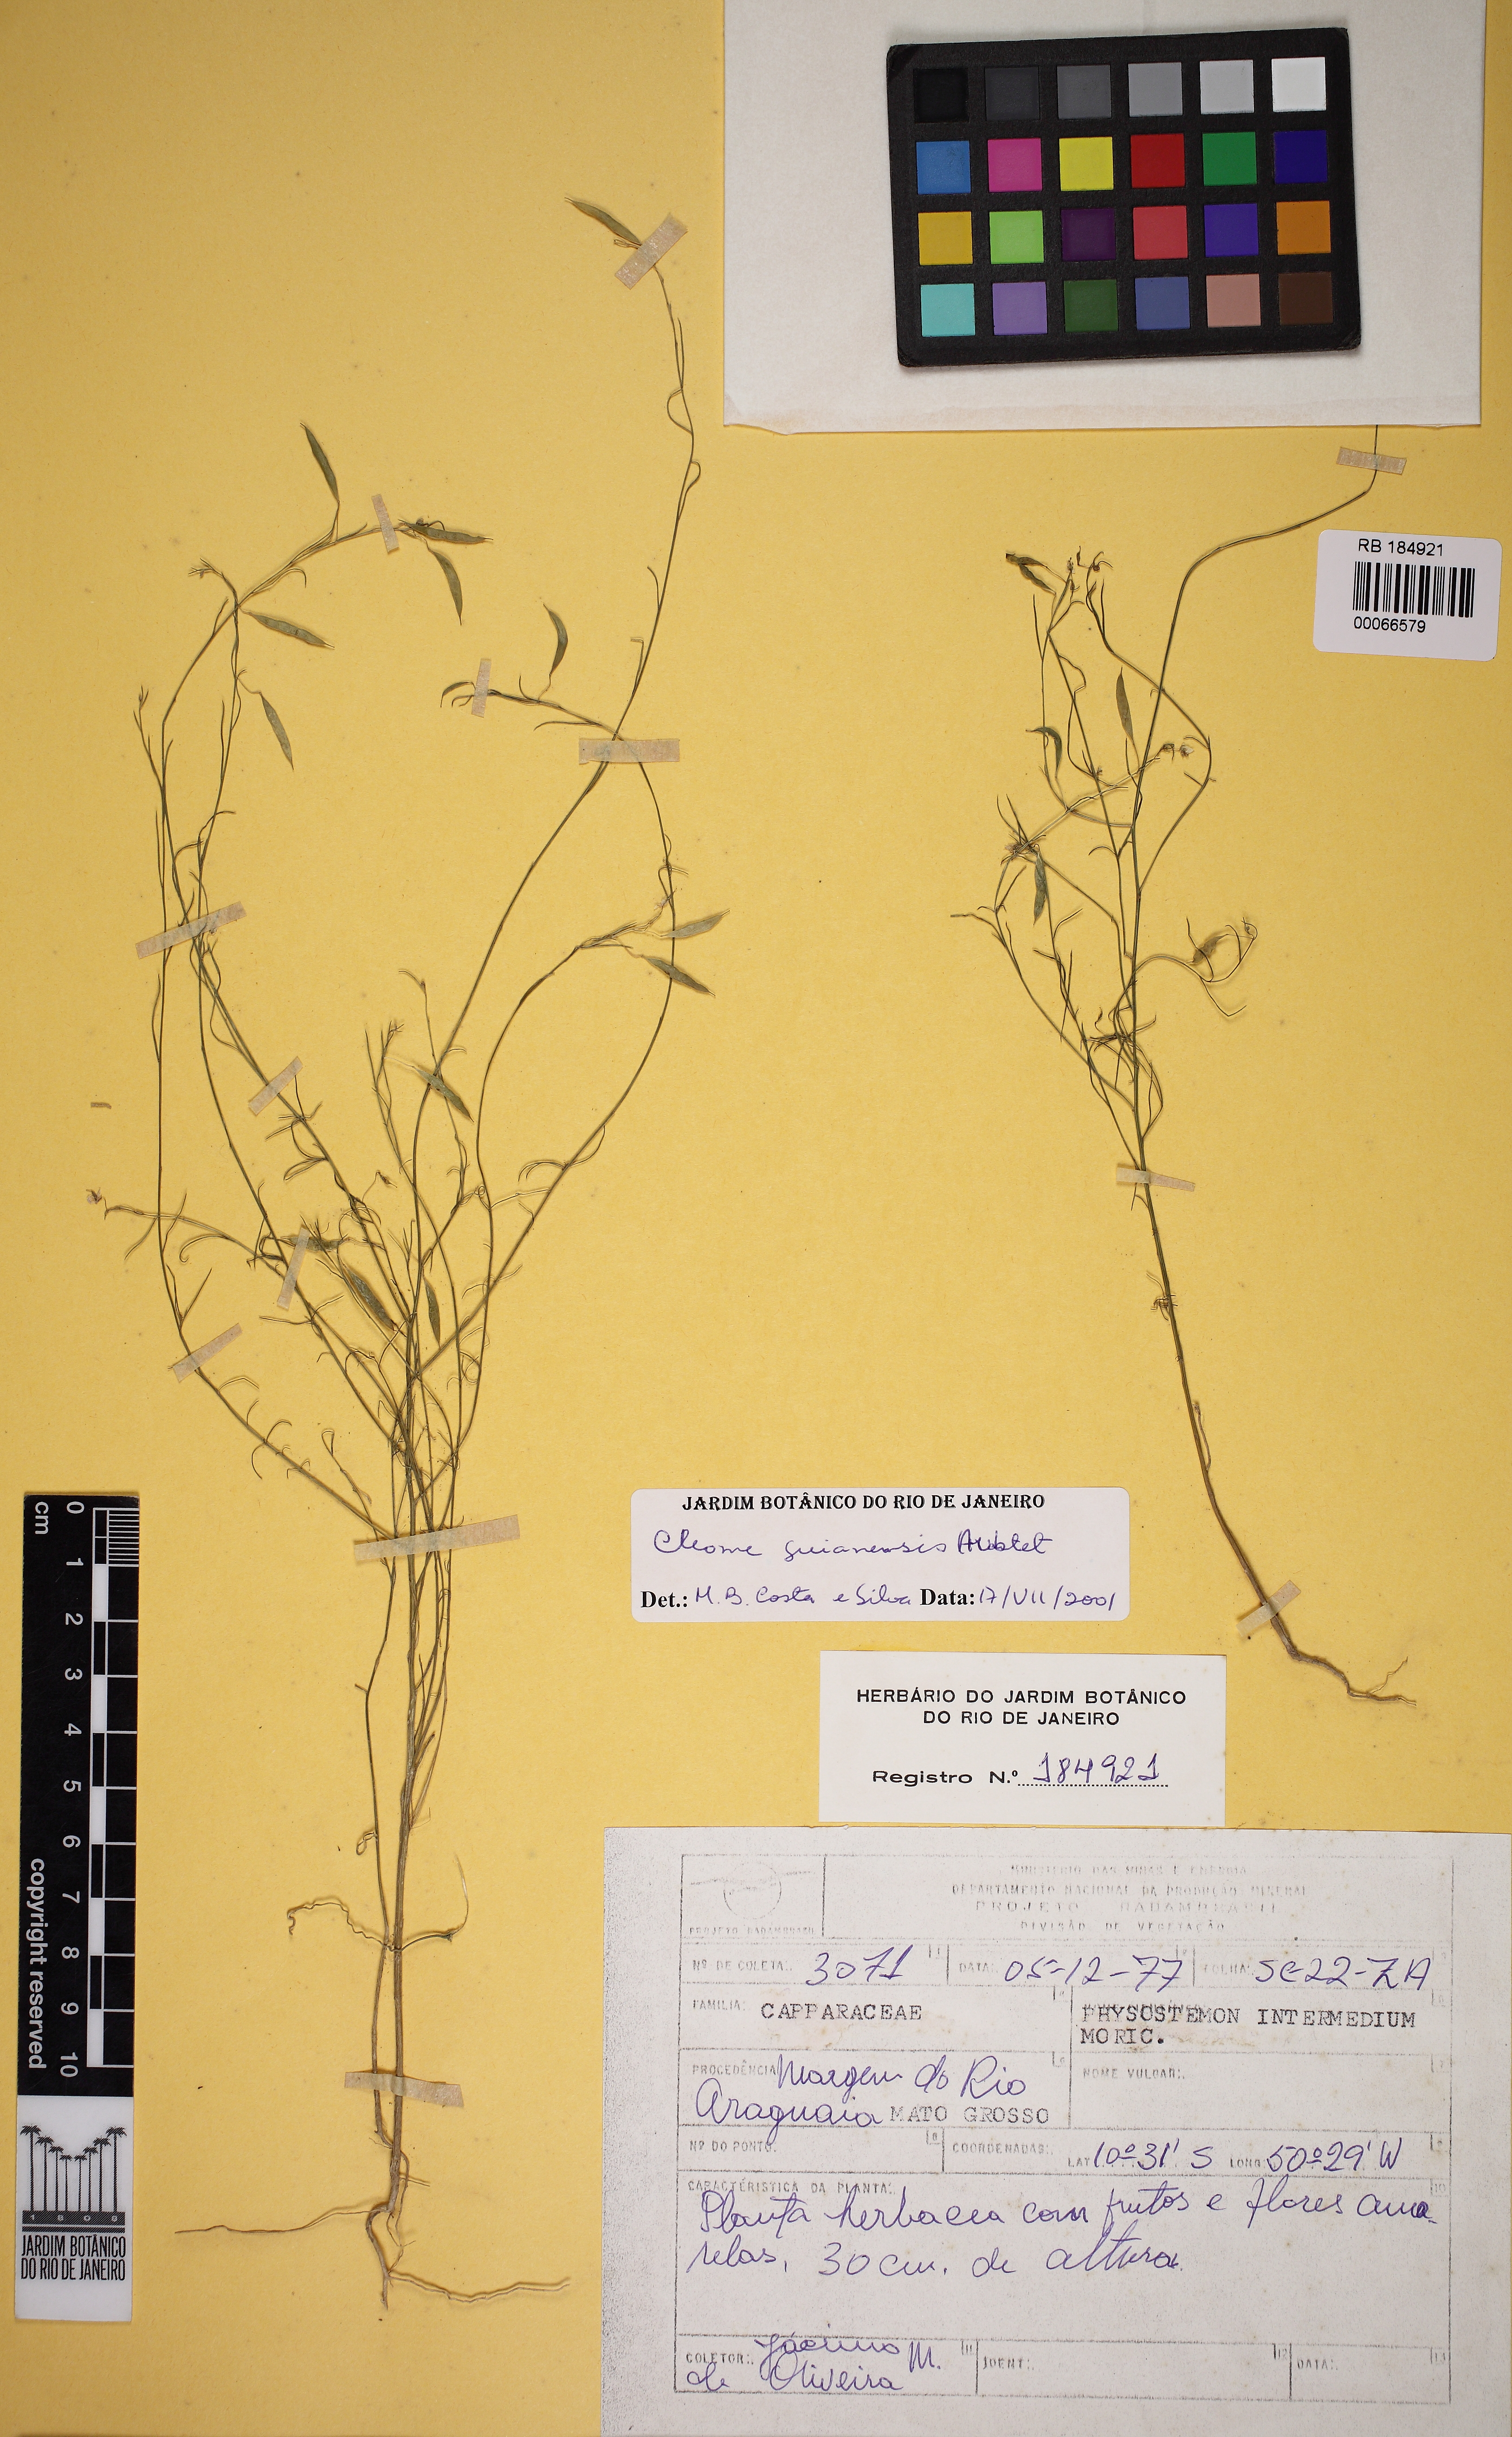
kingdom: Plantae
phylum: Tracheophyta
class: Magnoliopsida
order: Brassicales
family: Cleomaceae
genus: Physostemon
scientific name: Physostemon guianensis
